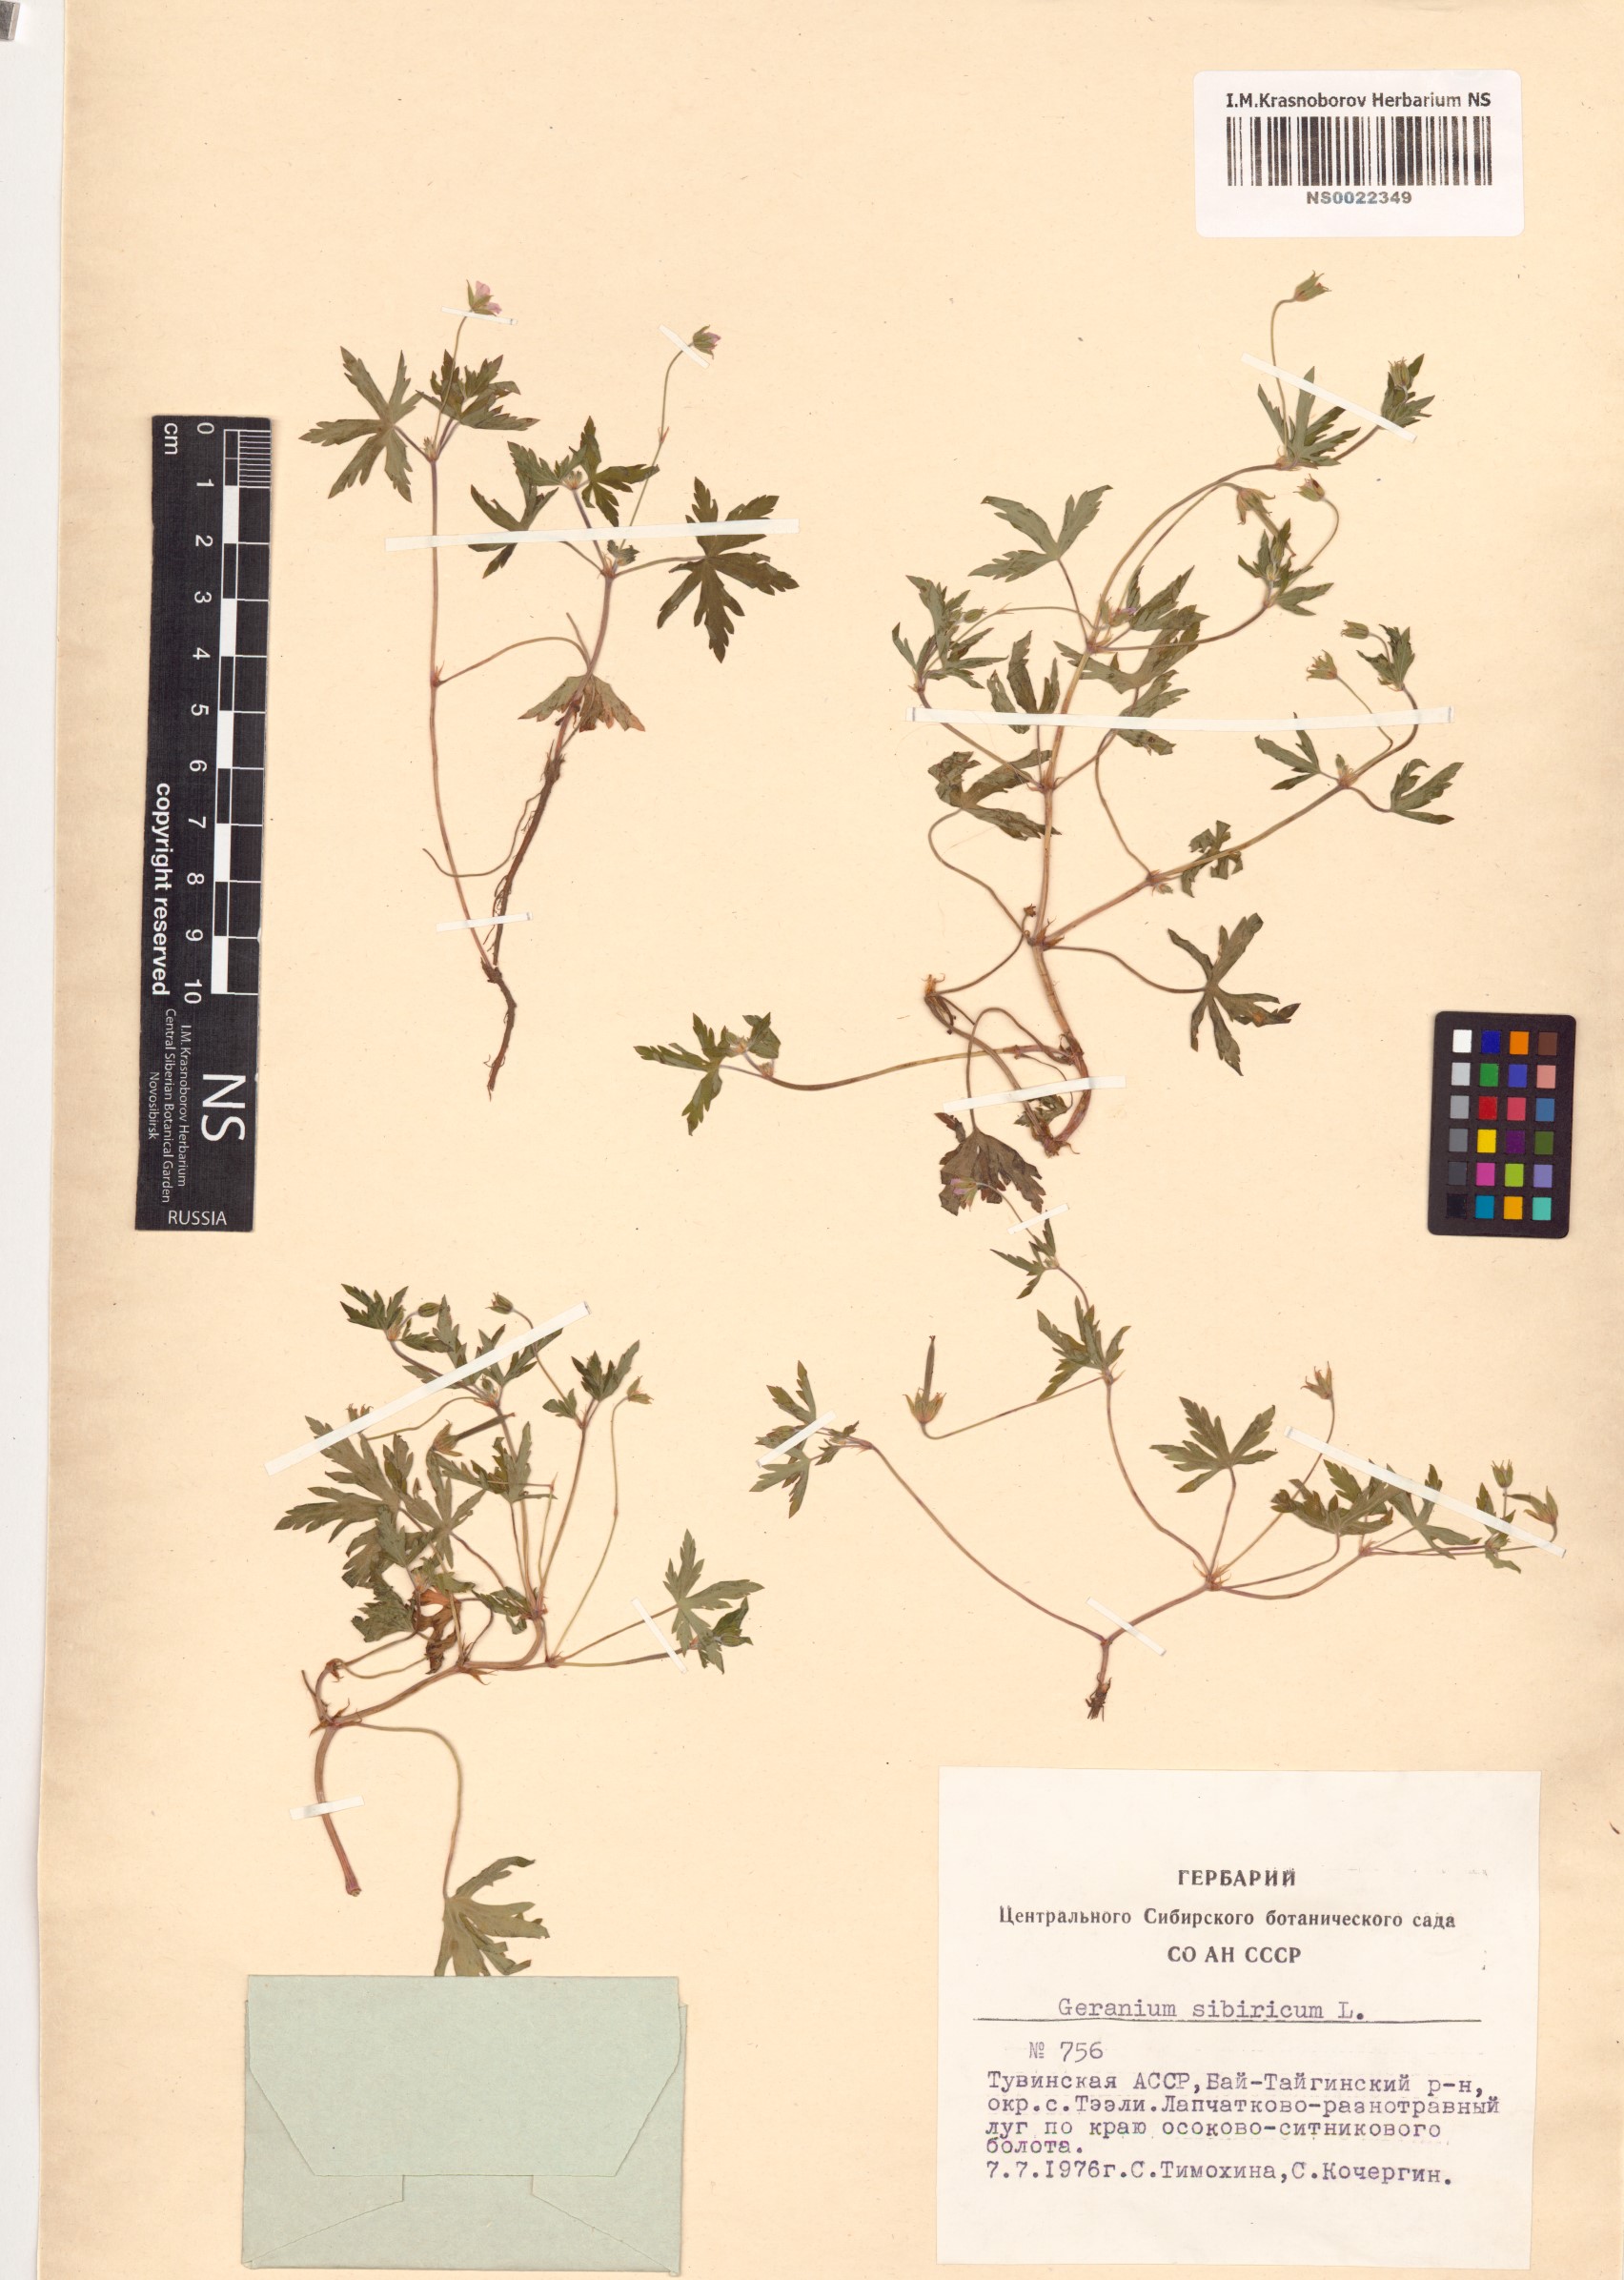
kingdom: Plantae
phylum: Tracheophyta
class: Magnoliopsida
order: Geraniales
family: Geraniaceae
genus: Geranium
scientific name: Geranium sibiricum
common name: Siberian crane's-bill
